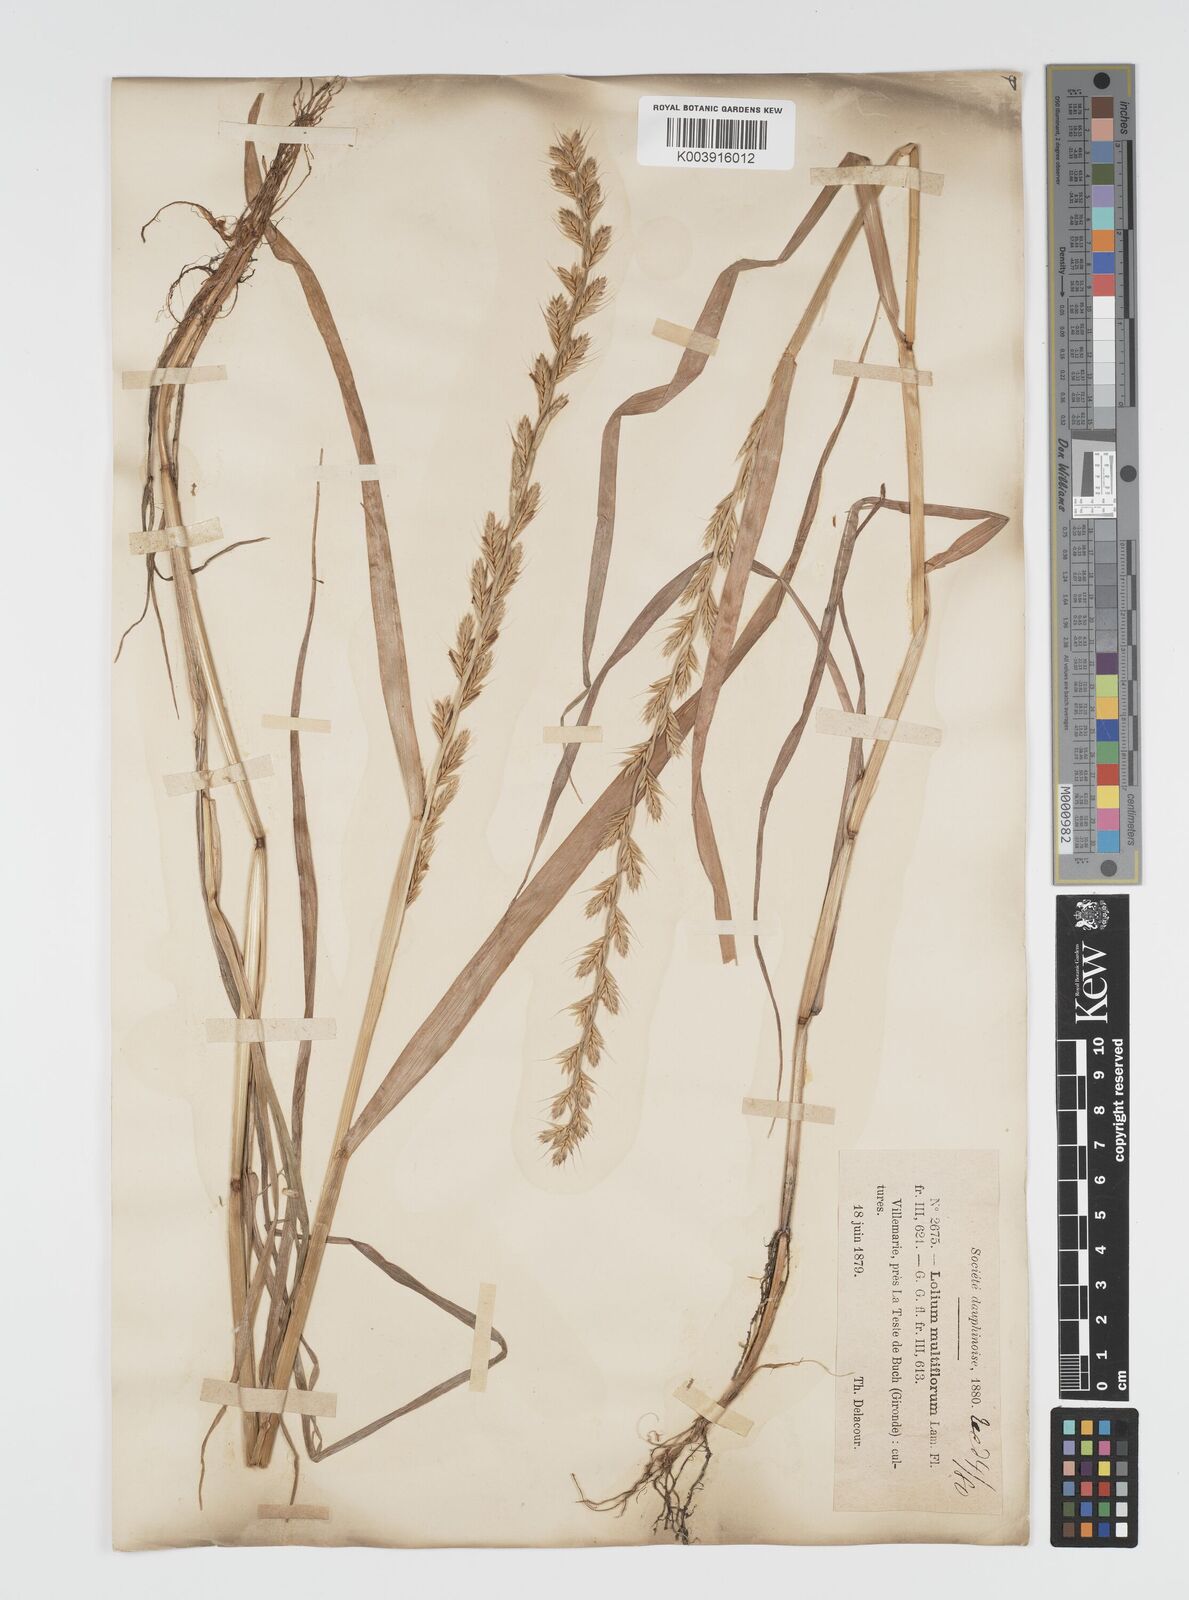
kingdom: Plantae
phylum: Tracheophyta
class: Liliopsida
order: Poales
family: Poaceae
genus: Lolium
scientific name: Lolium multiflorum
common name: Annual ryegrass
